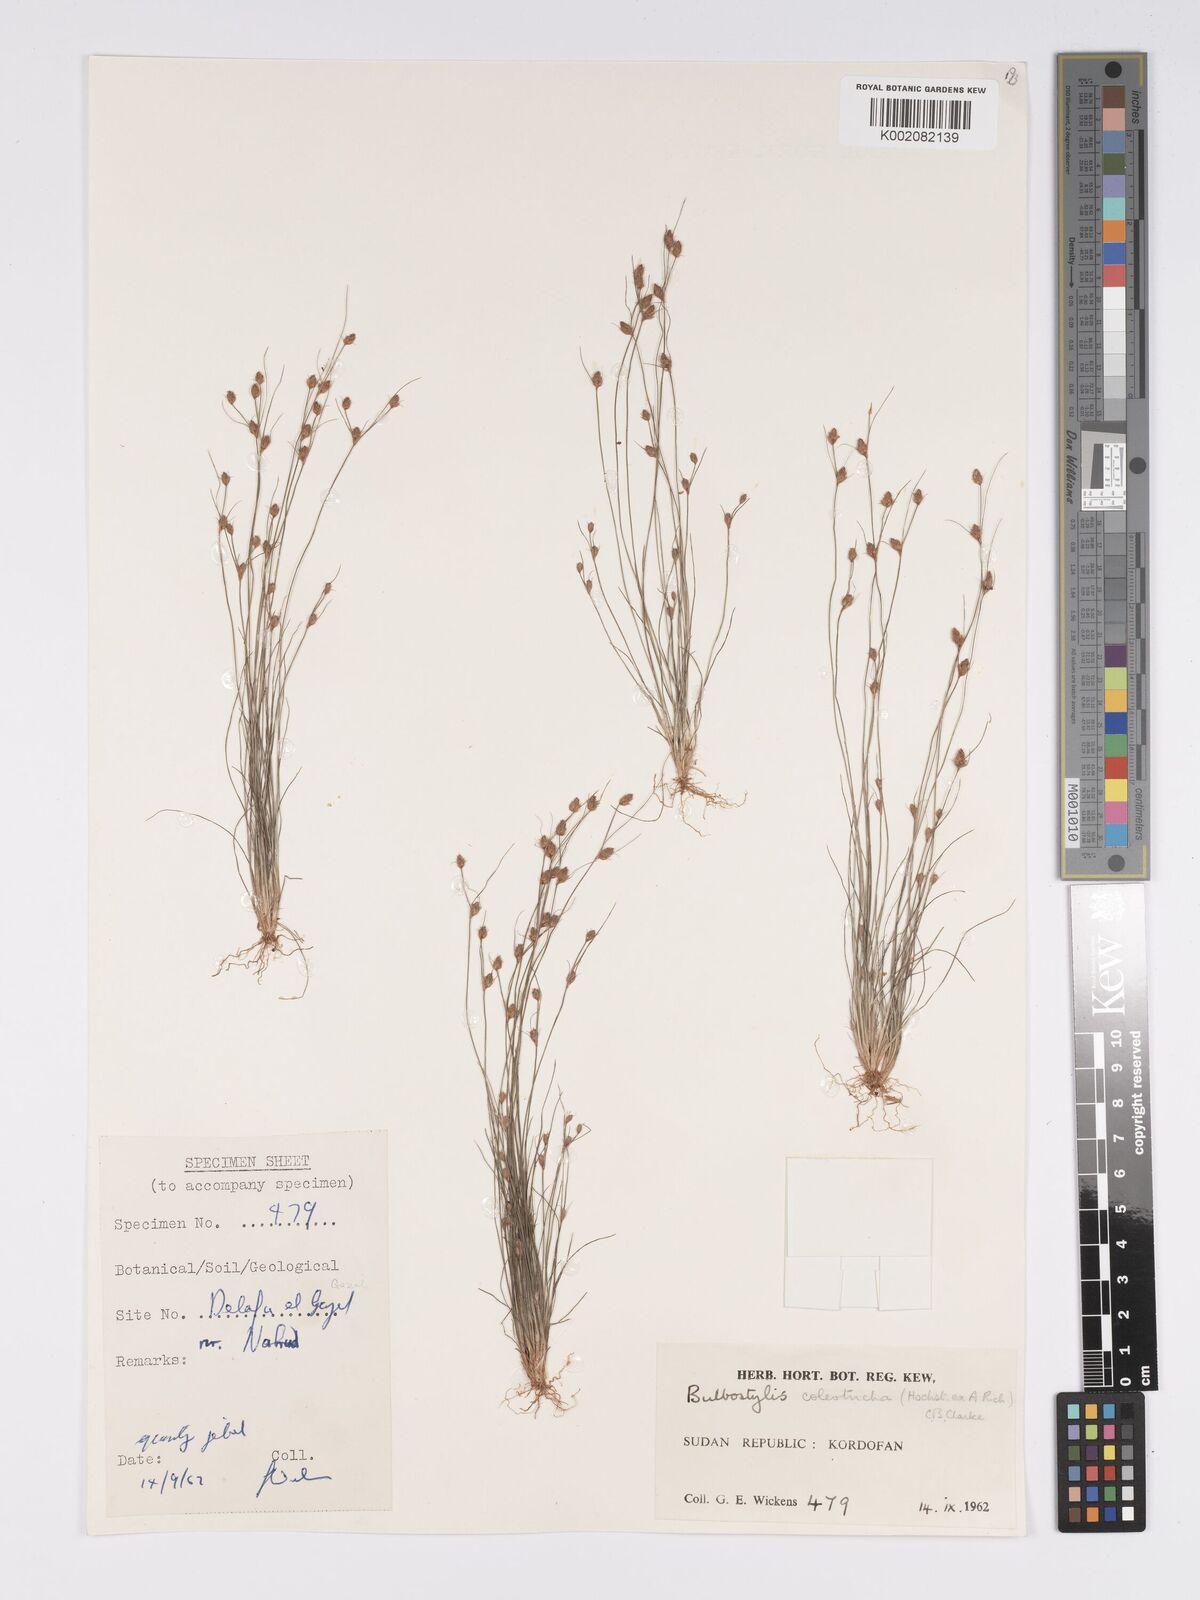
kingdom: Plantae
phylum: Tracheophyta
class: Liliopsida
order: Poales
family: Cyperaceae
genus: Bulbostylis
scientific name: Bulbostylis coleotricha
